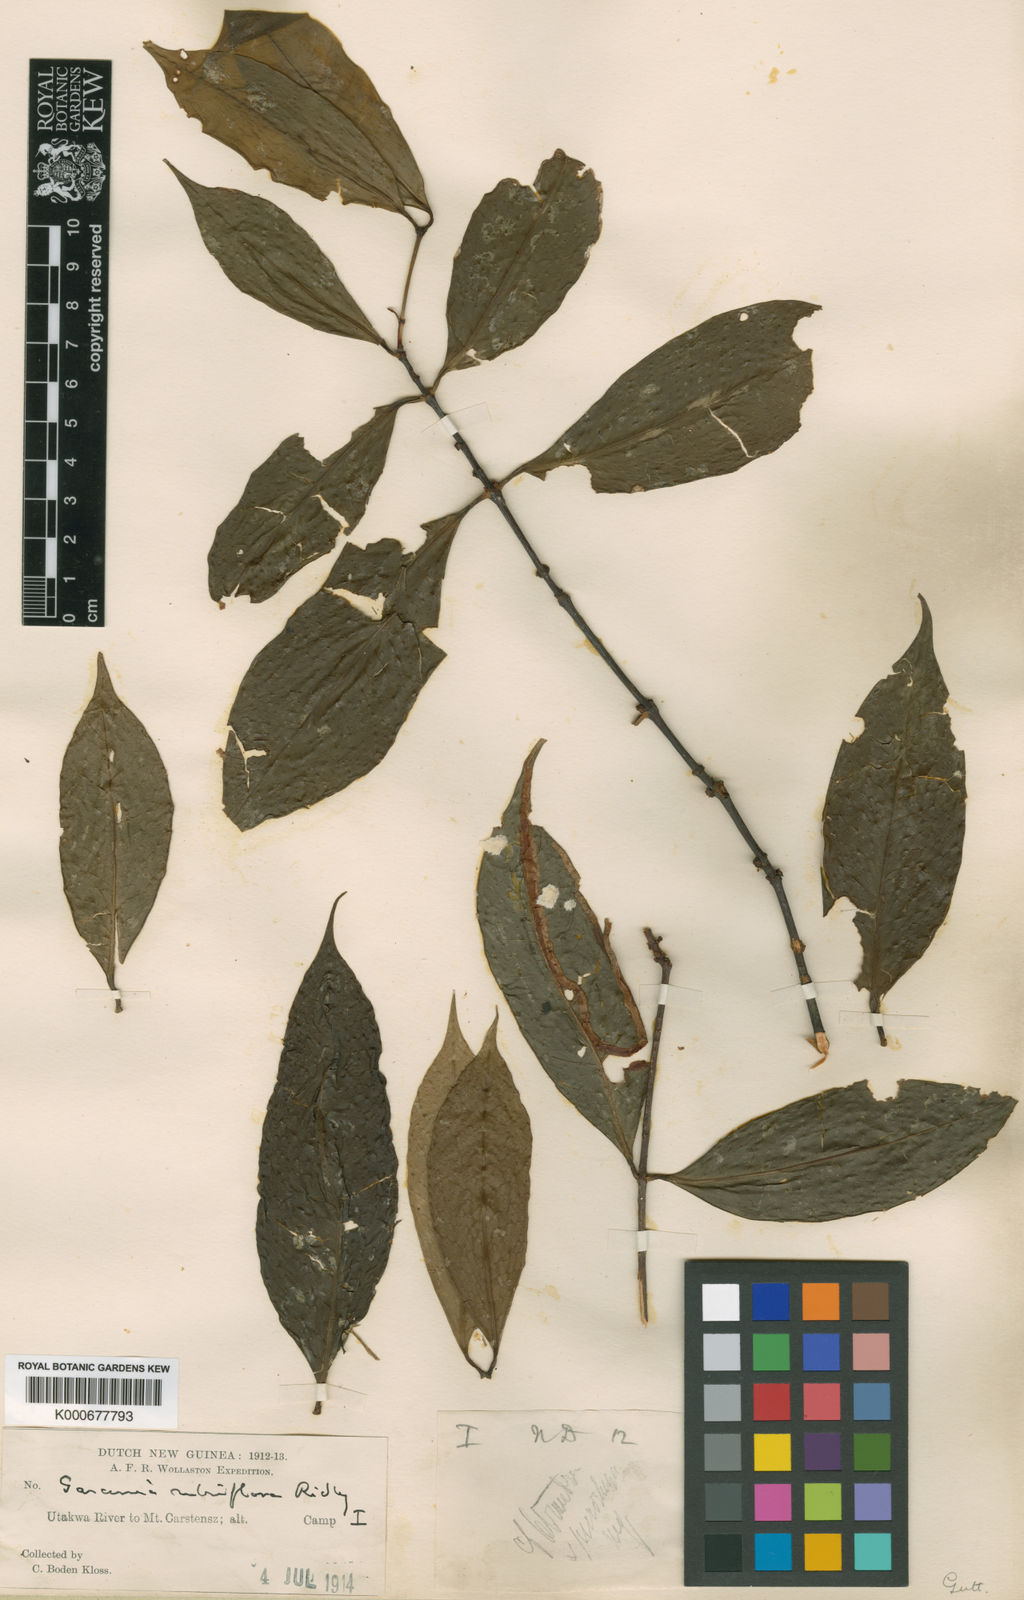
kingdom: Plantae
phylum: Tracheophyta
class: Magnoliopsida
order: Malpighiales
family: Clusiaceae
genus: Garcinia
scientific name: Garcinia rubriflora
